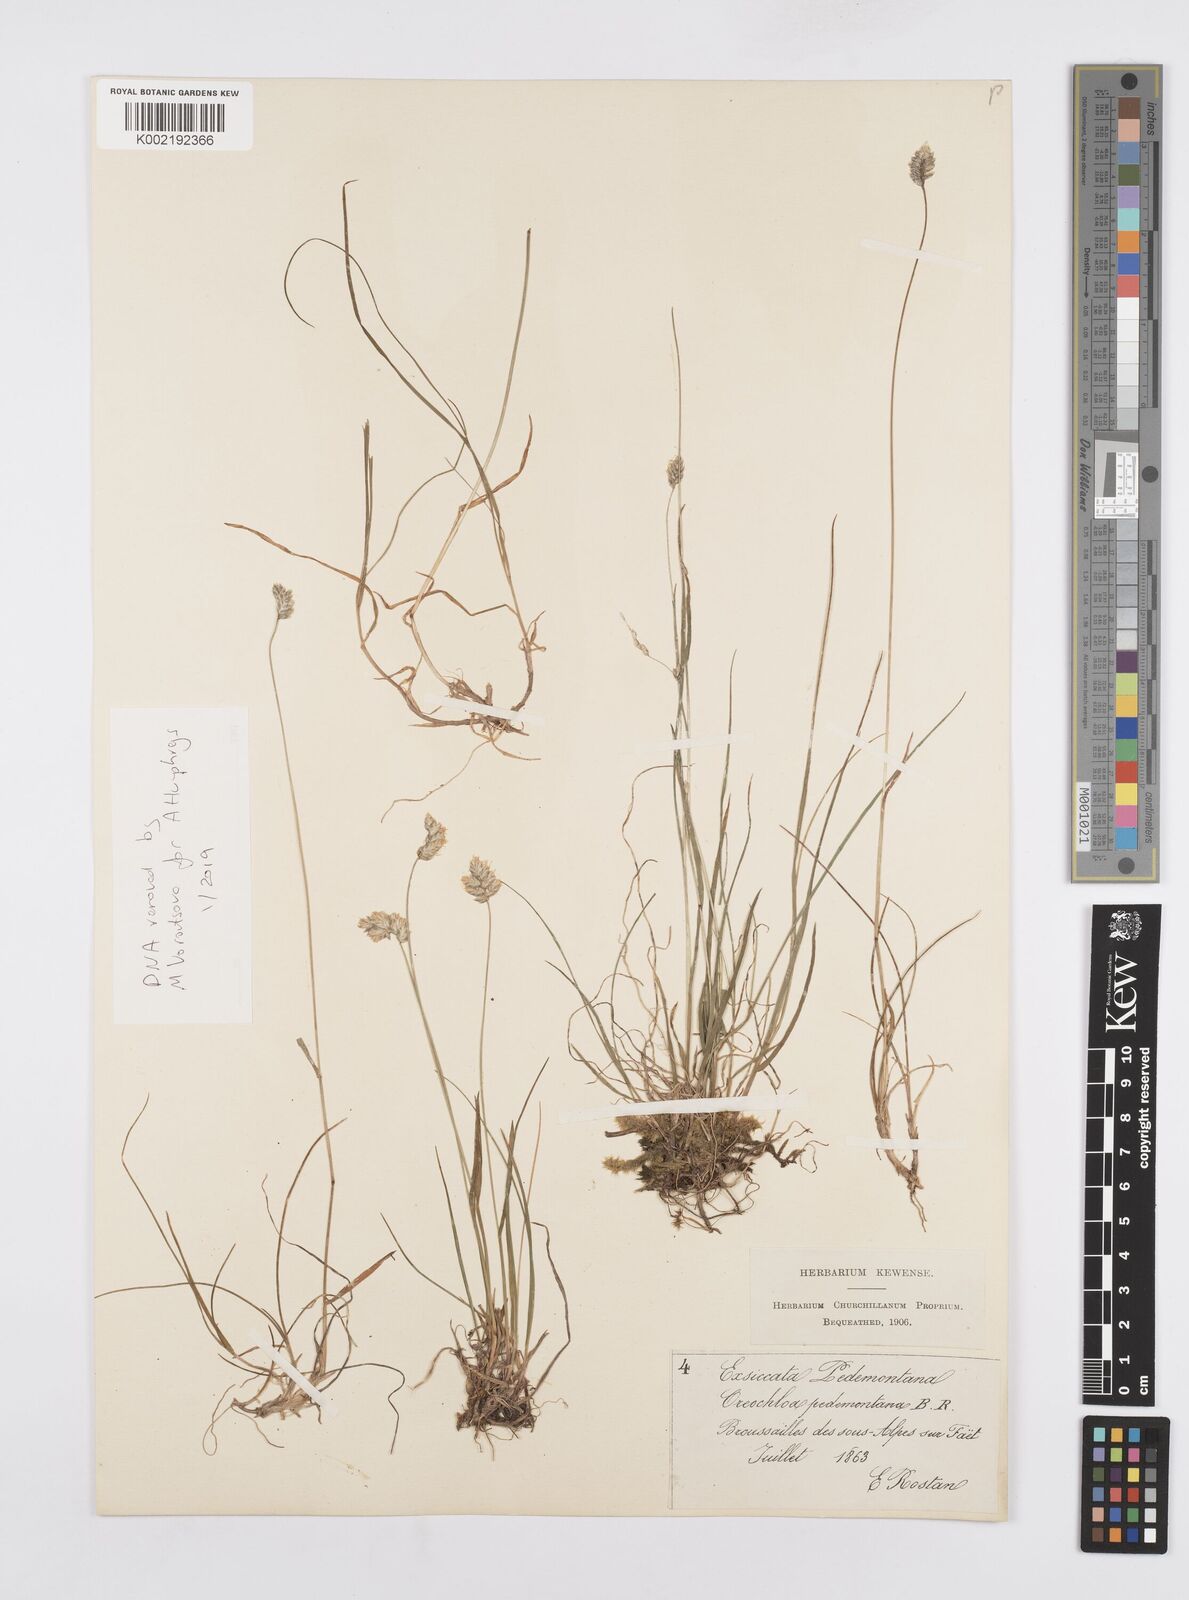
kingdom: Plantae
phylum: Tracheophyta
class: Liliopsida
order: Poales
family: Poaceae
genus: Oreochloa
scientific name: Oreochloa seslerioides
